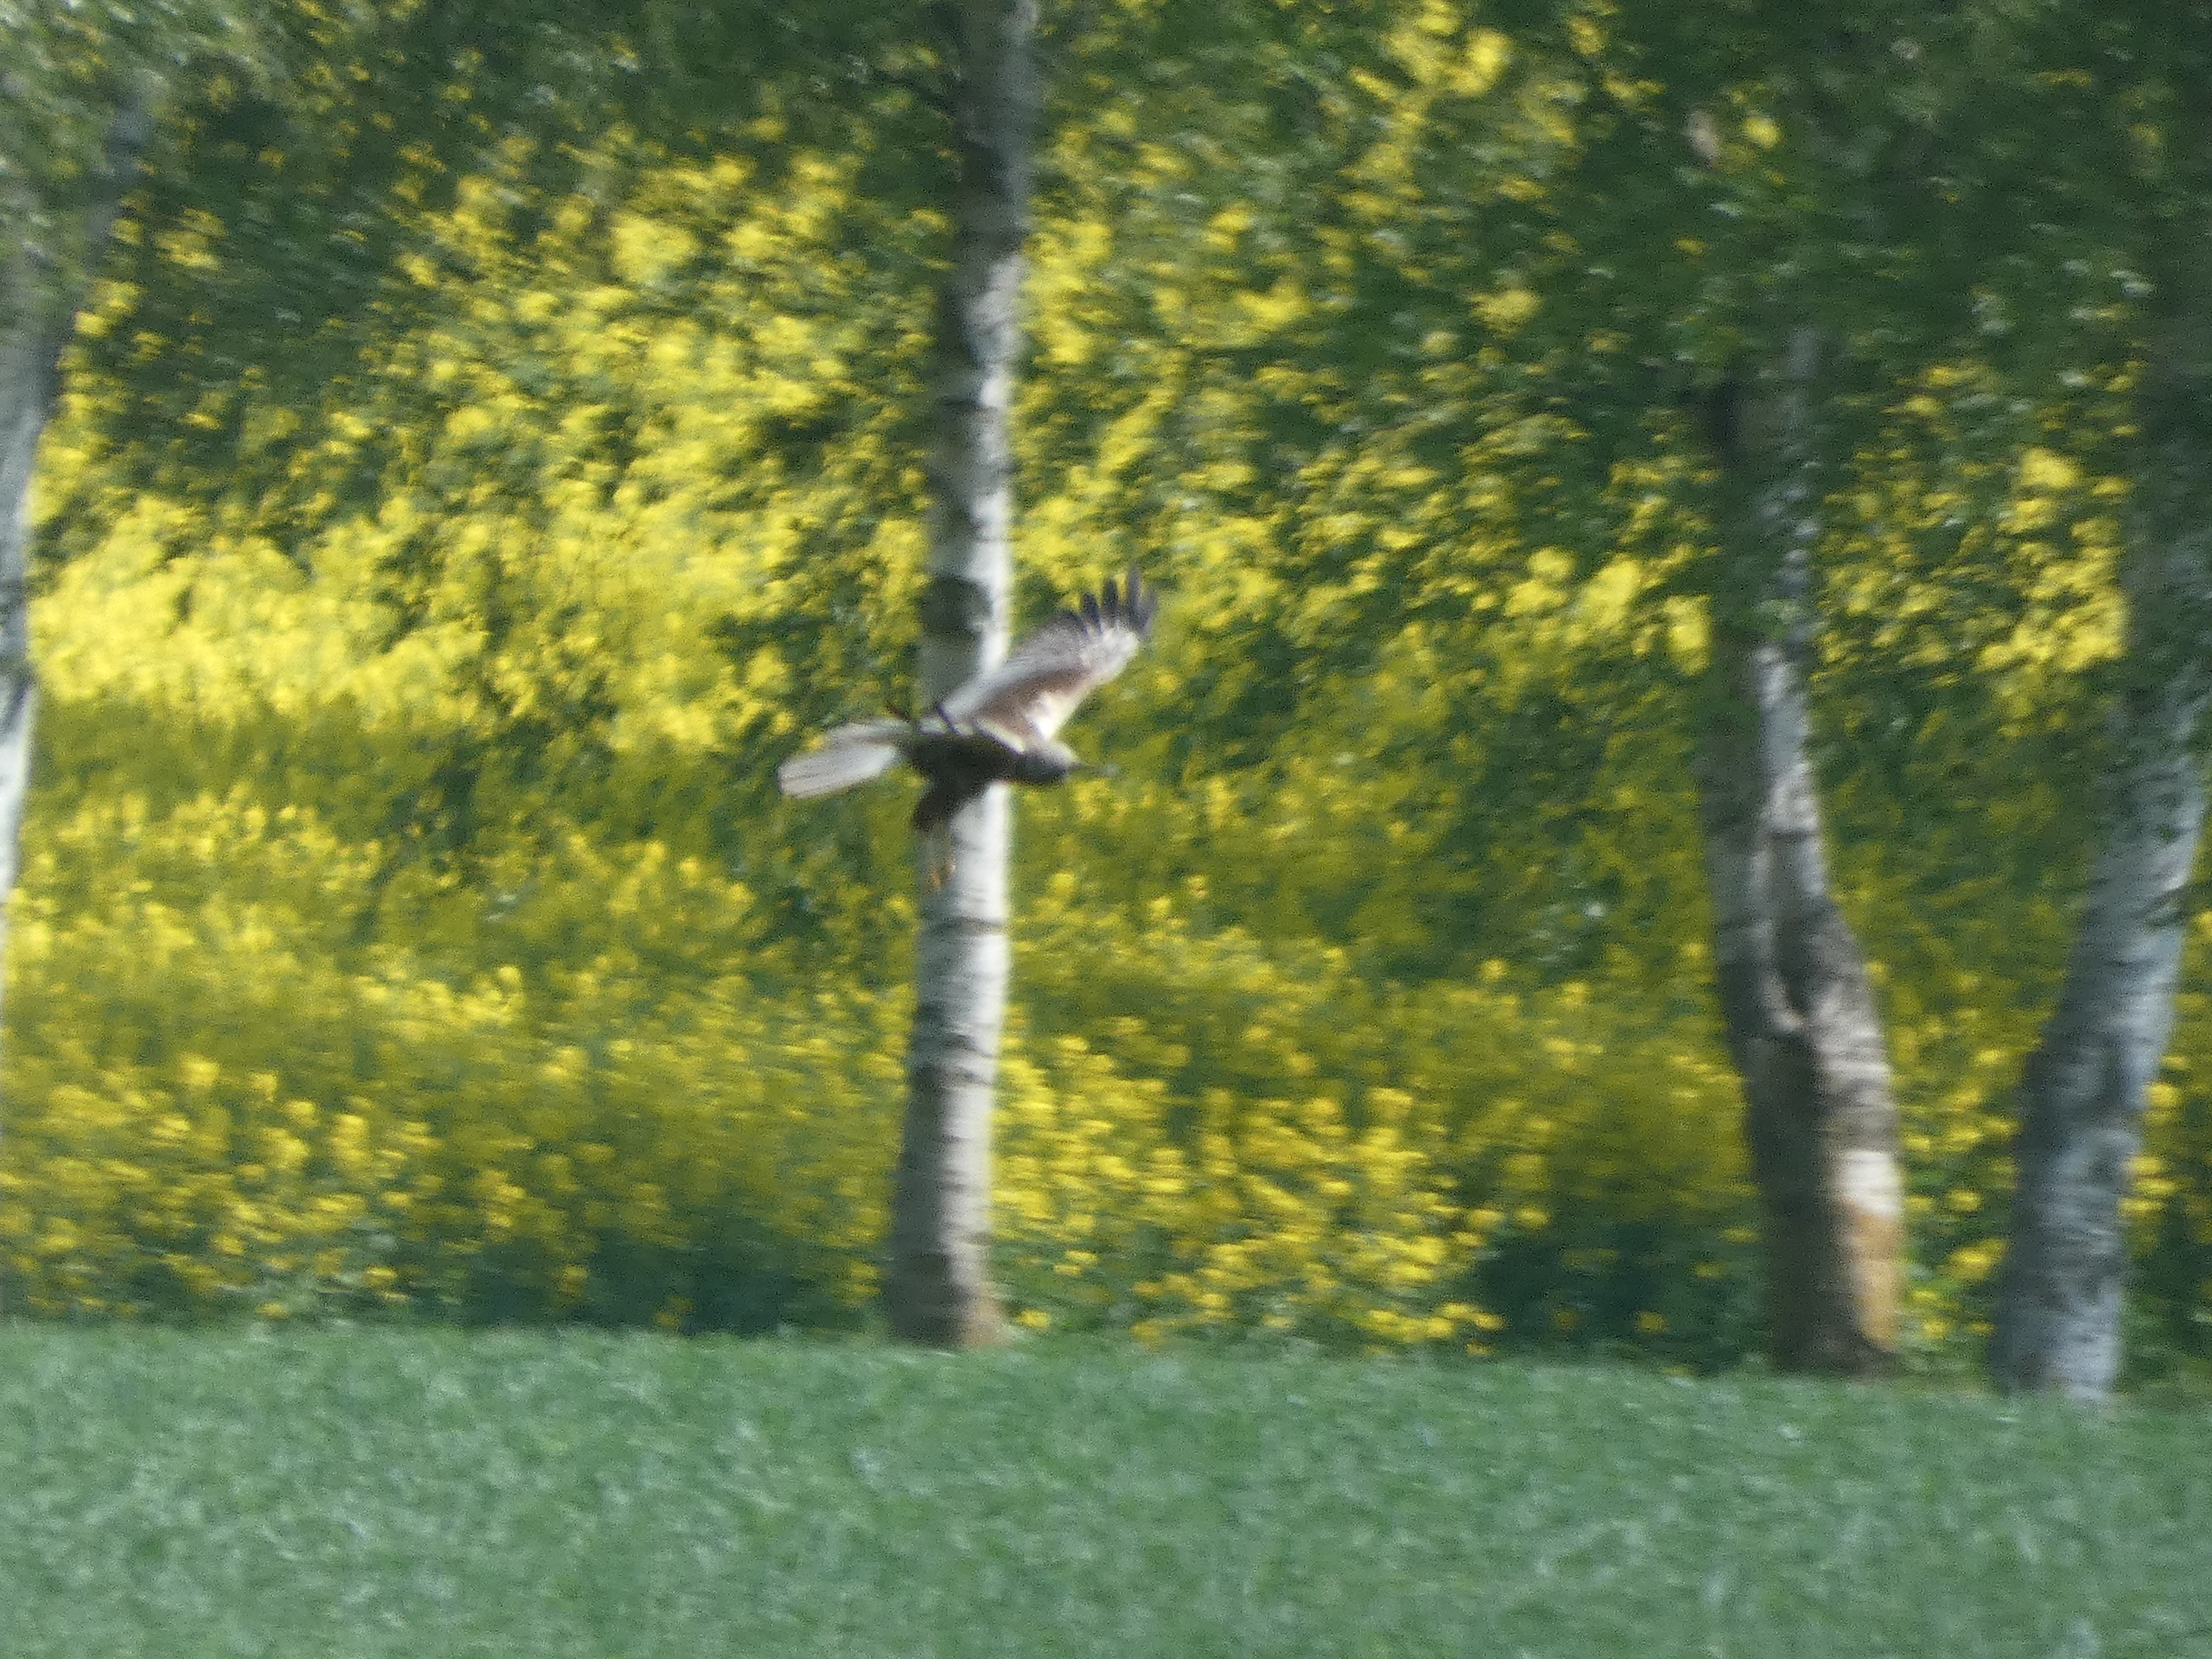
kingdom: Animalia
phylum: Chordata
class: Aves
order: Accipitriformes
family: Accipitridae
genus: Circus
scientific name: Circus aeruginosus
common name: Rørhøg
